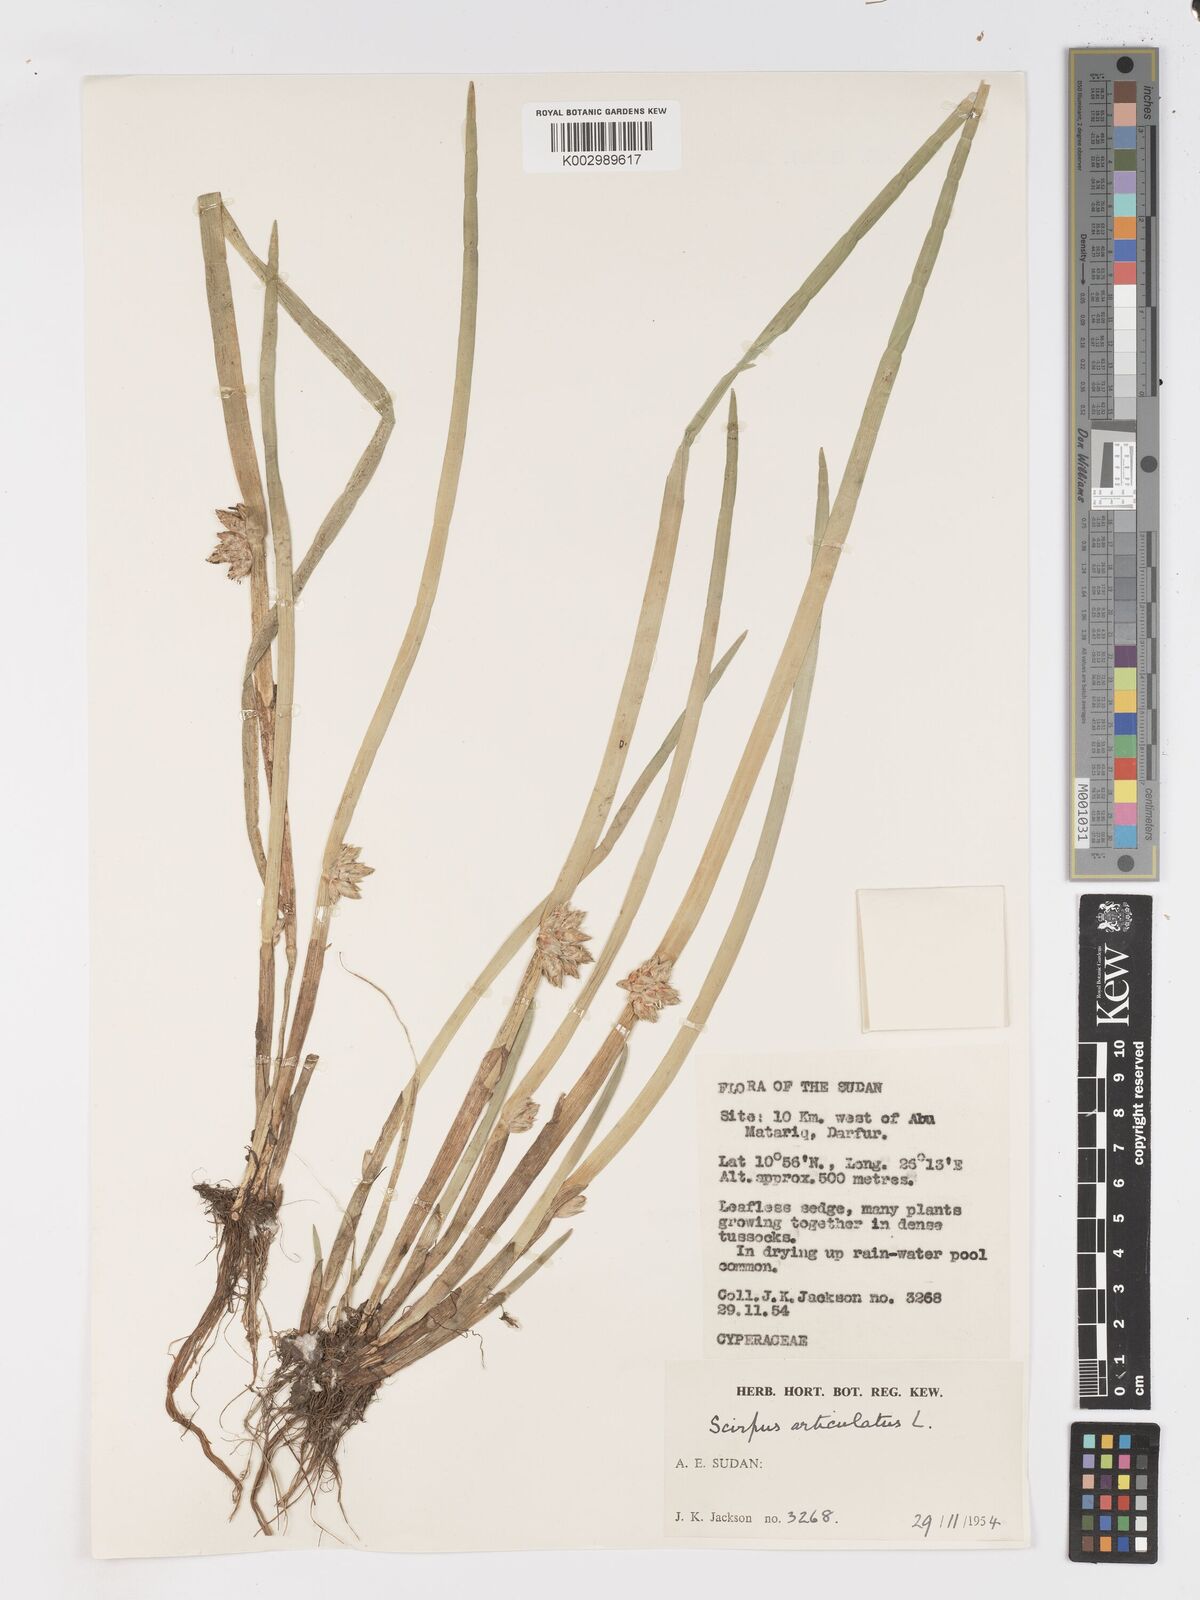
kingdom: Plantae
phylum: Tracheophyta
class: Liliopsida
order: Poales
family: Cyperaceae
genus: Schoenoplectiella
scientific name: Schoenoplectiella articulata
